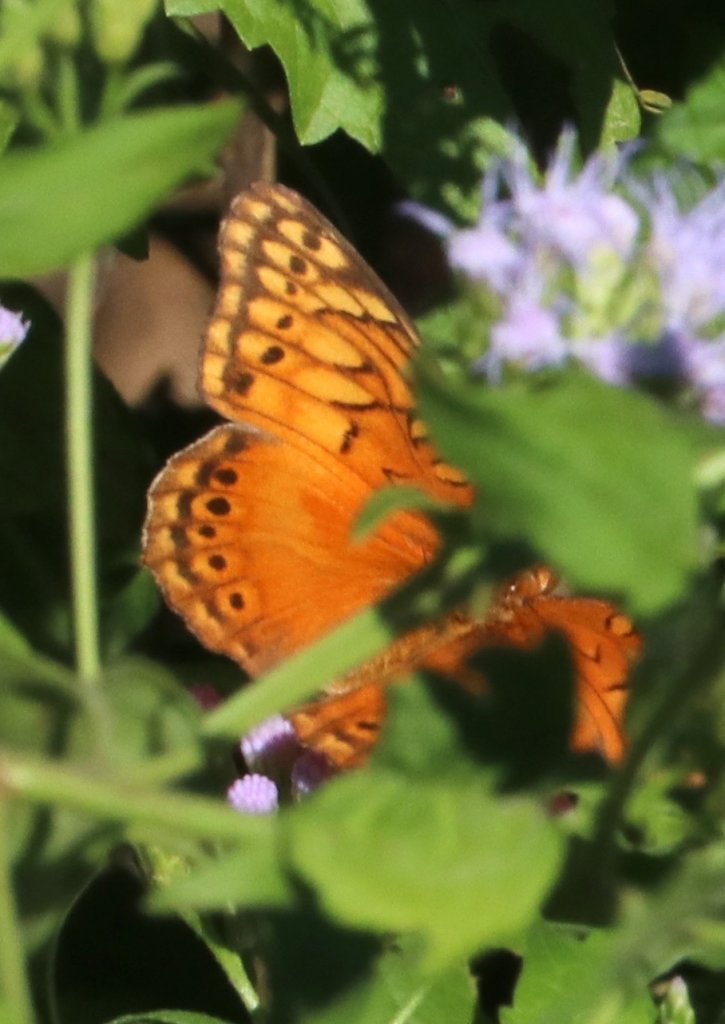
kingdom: Animalia
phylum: Arthropoda
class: Insecta
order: Lepidoptera
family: Nymphalidae
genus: Euptoieta
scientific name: Euptoieta hegesia
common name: Mexican Fritillary
